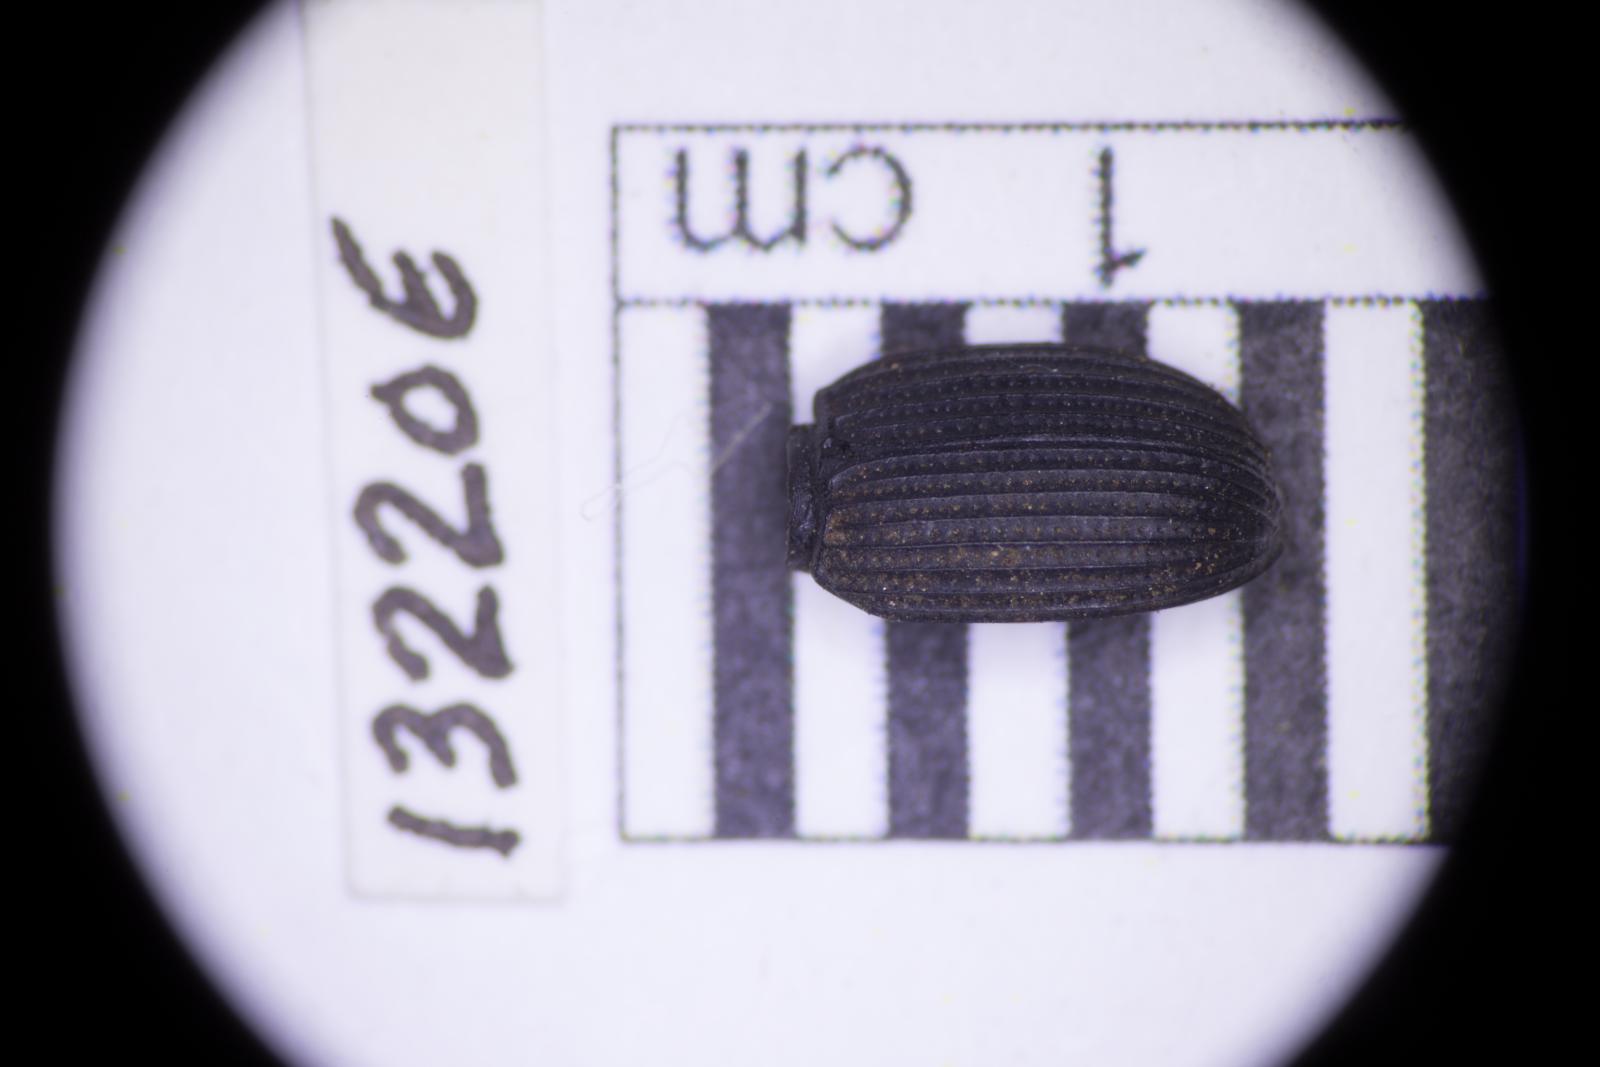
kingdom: Animalia
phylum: Arthropoda
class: Insecta
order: Coleoptera
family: Tenebrionidae
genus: Apsena
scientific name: Apsena laticornis
